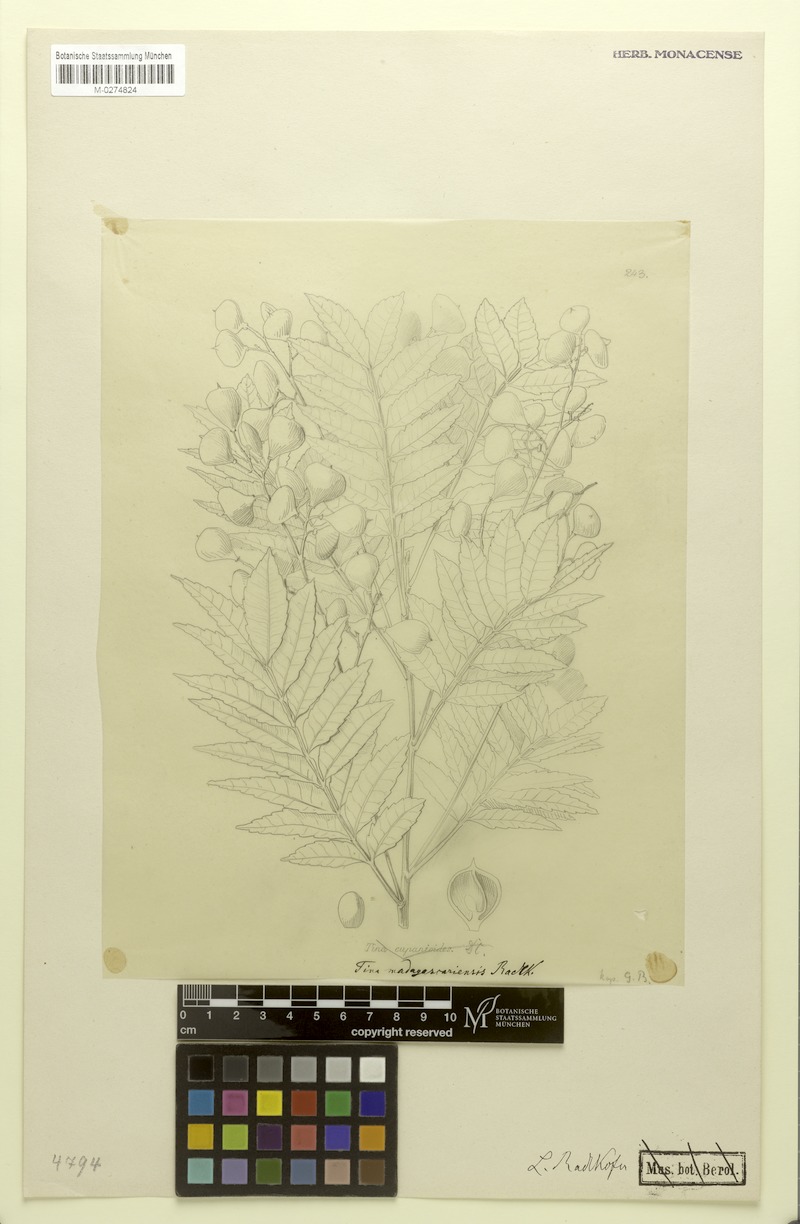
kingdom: Plantae
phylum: Tracheophyta
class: Magnoliopsida
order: Sapindales
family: Sapindaceae
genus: Tina
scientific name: Tina chapelieriana
